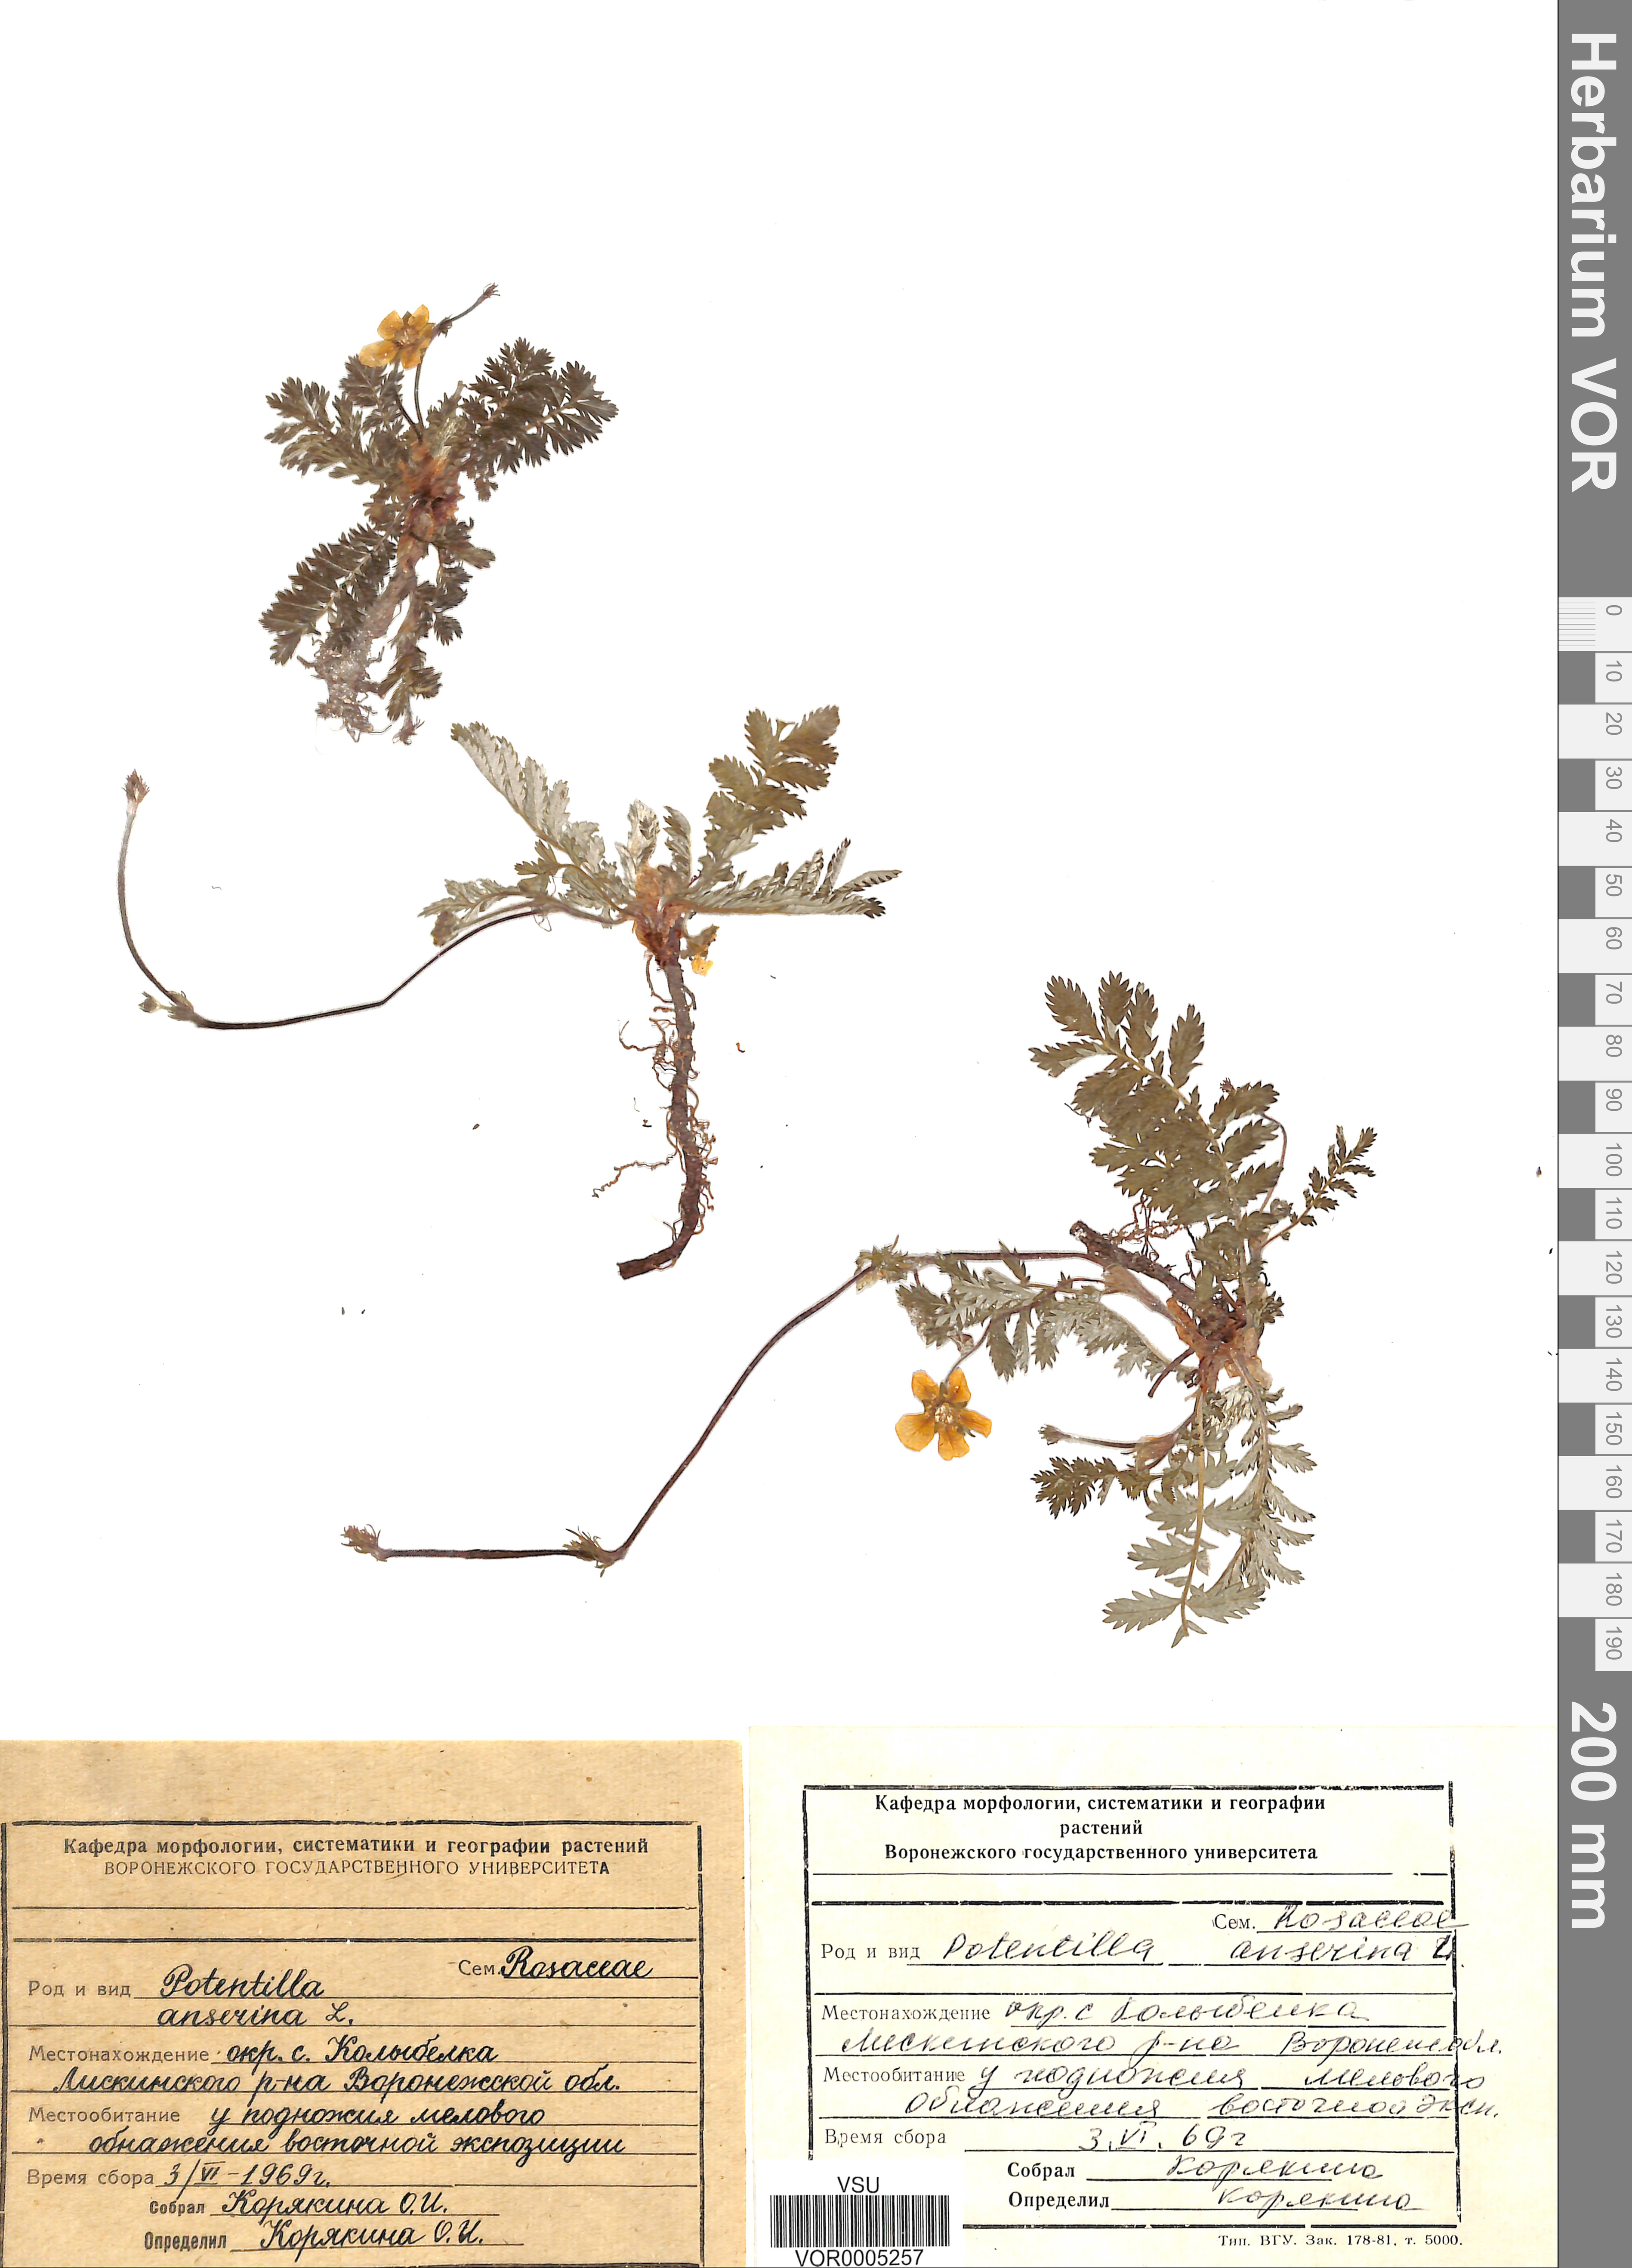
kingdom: Plantae
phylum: Tracheophyta
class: Magnoliopsida
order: Rosales
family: Rosaceae
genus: Argentina
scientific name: Argentina anserina
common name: Common silverweed
